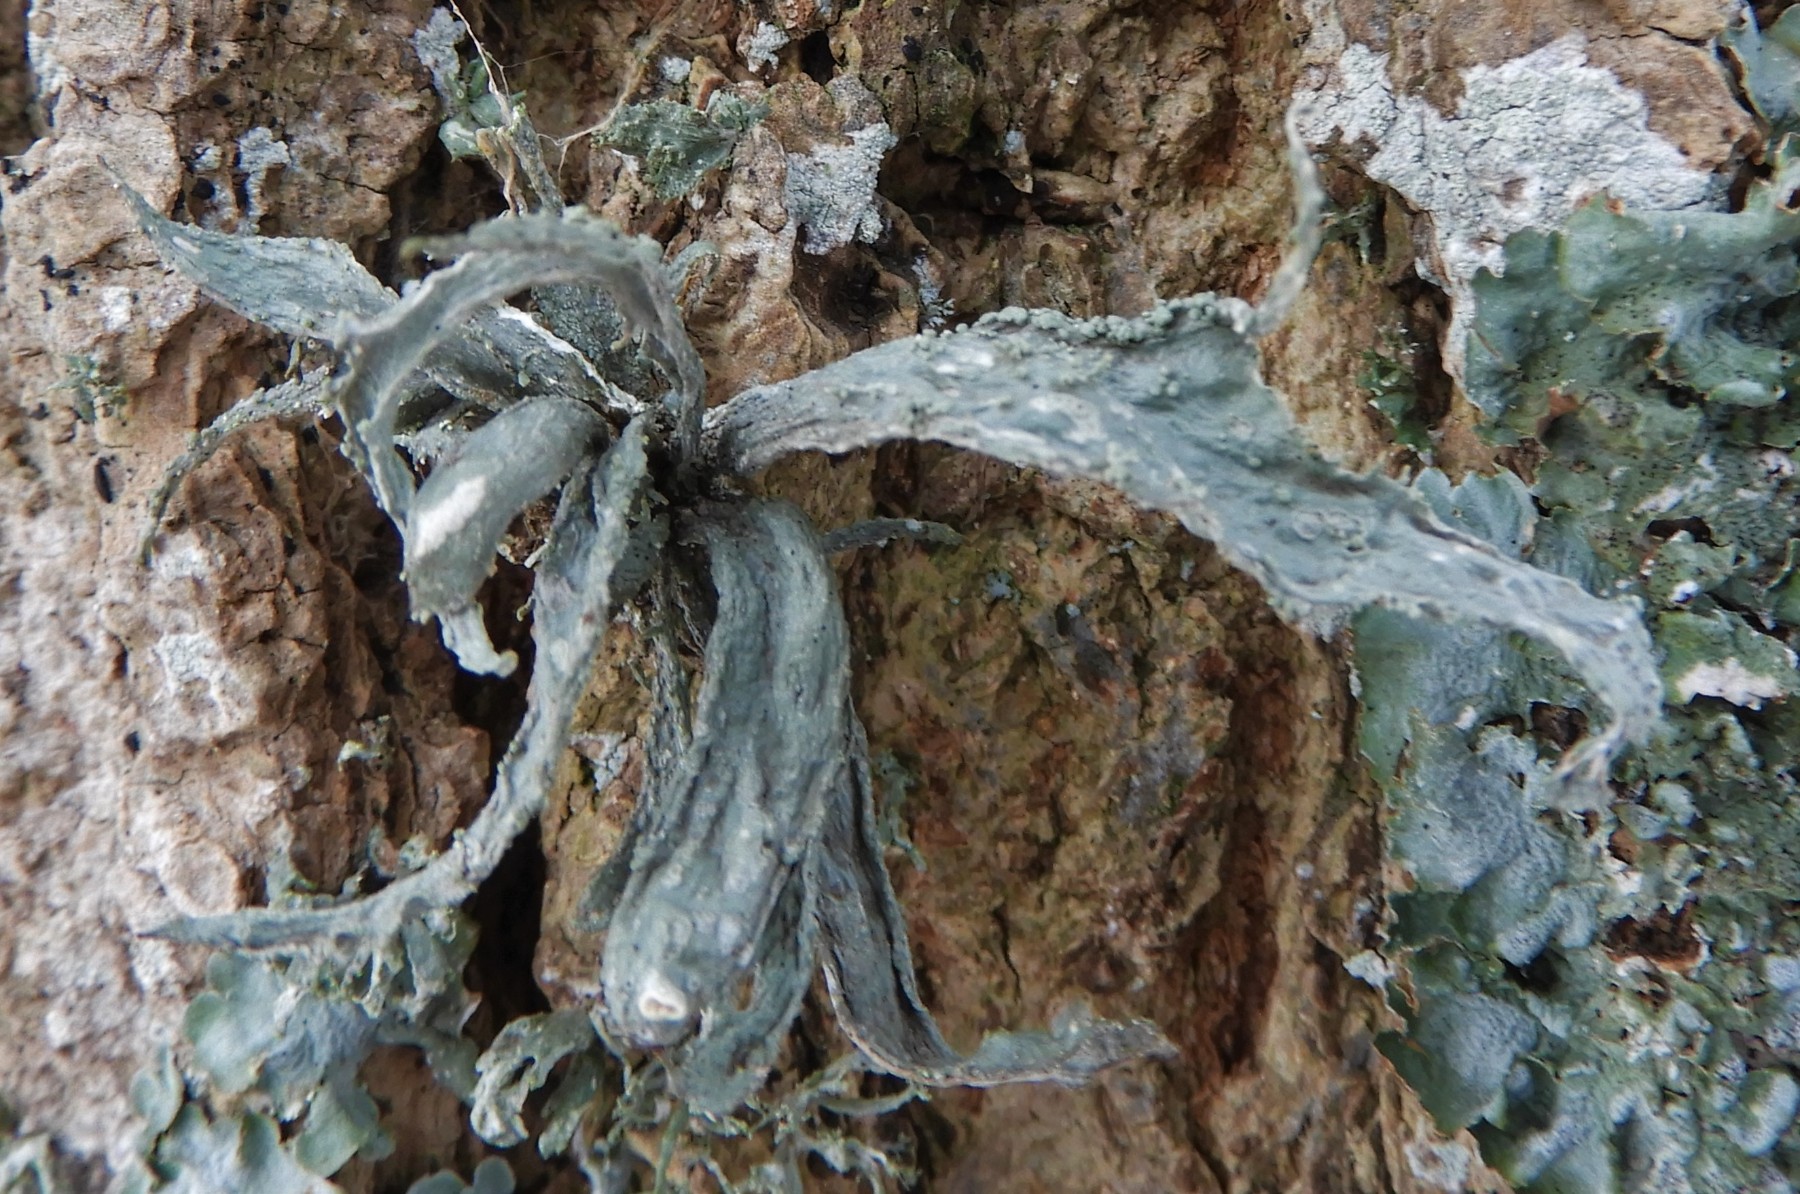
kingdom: Fungi
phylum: Ascomycota
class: Lecanoromycetes
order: Lecanorales
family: Ramalinaceae
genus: Ramalina
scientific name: Ramalina fraxinea
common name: stor grenlav
